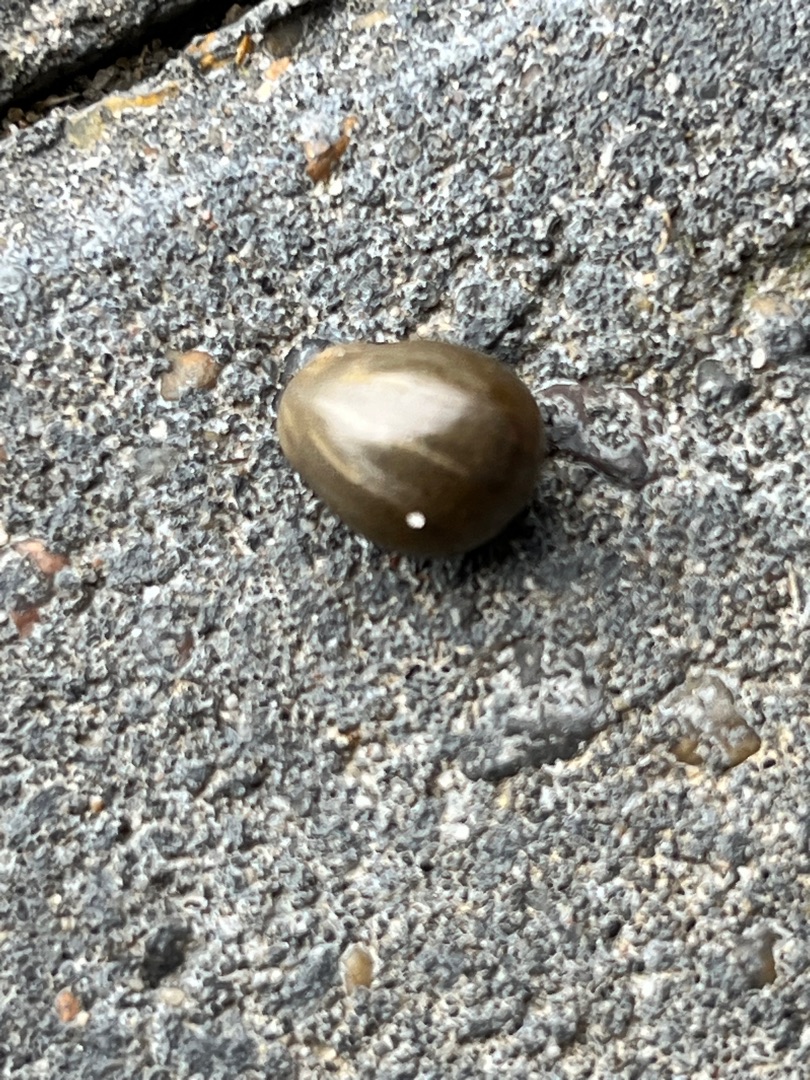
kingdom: Animalia
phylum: Arthropoda
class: Arachnida
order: Ixodida
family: Ixodidae
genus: Ixodes
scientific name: Ixodes ricinus
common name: Skovflåt
